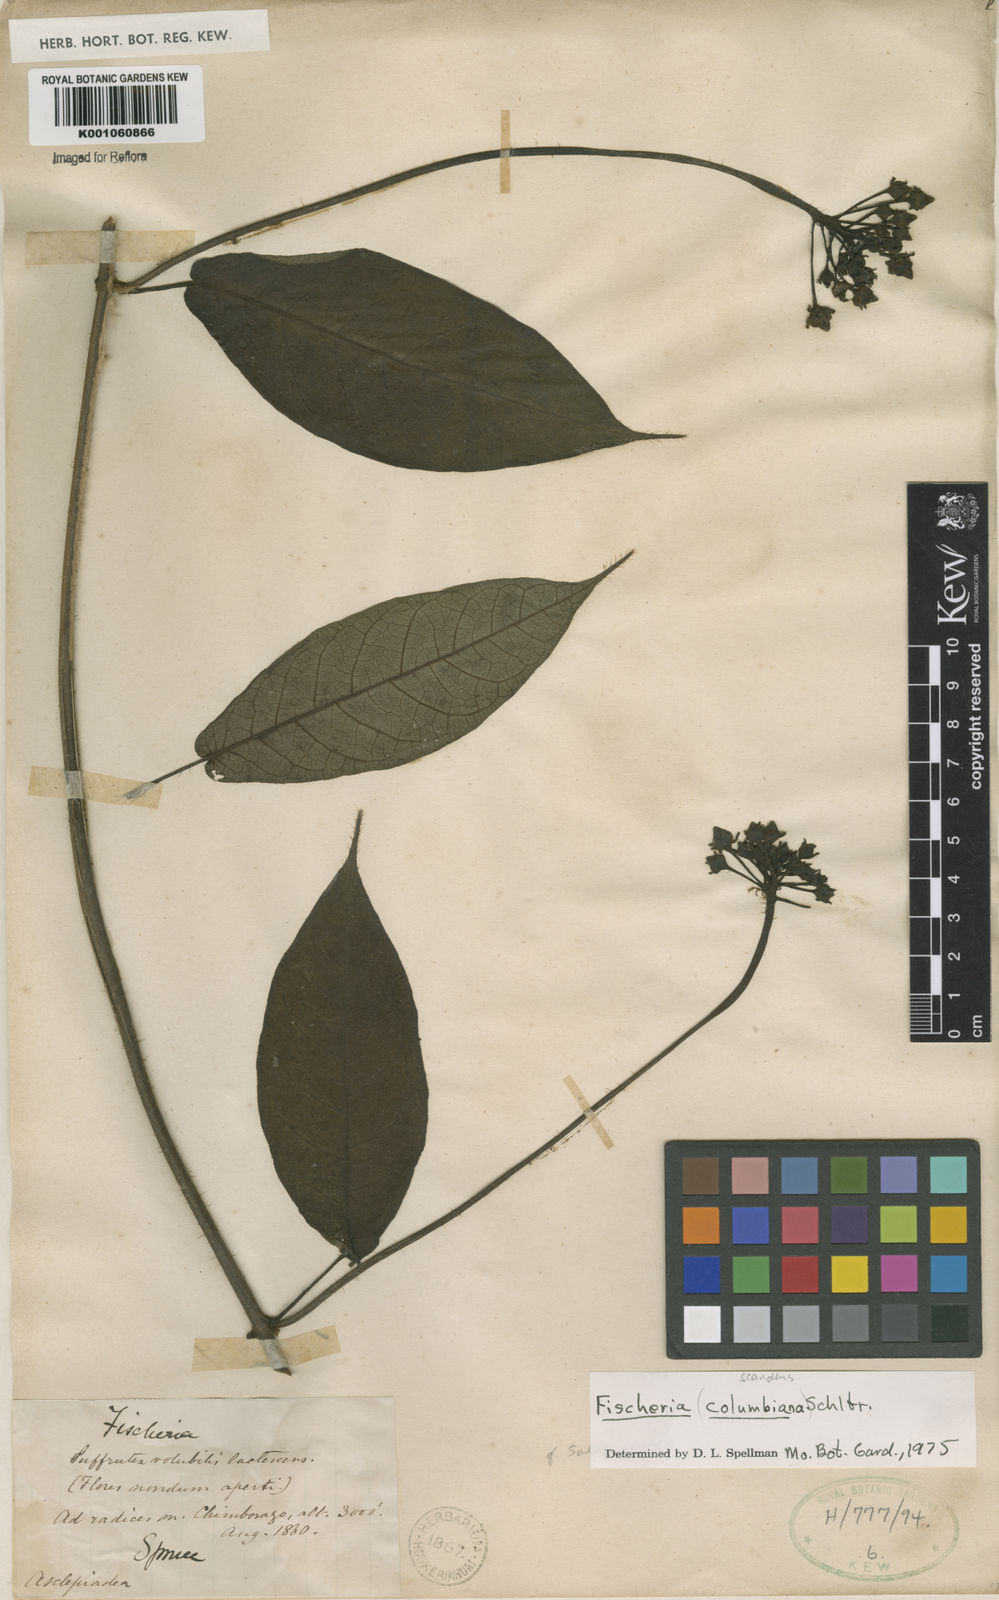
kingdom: Plantae
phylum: Tracheophyta
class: Magnoliopsida
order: Gentianales
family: Apocynaceae
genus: Fischeria
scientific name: Fischeria scandens
